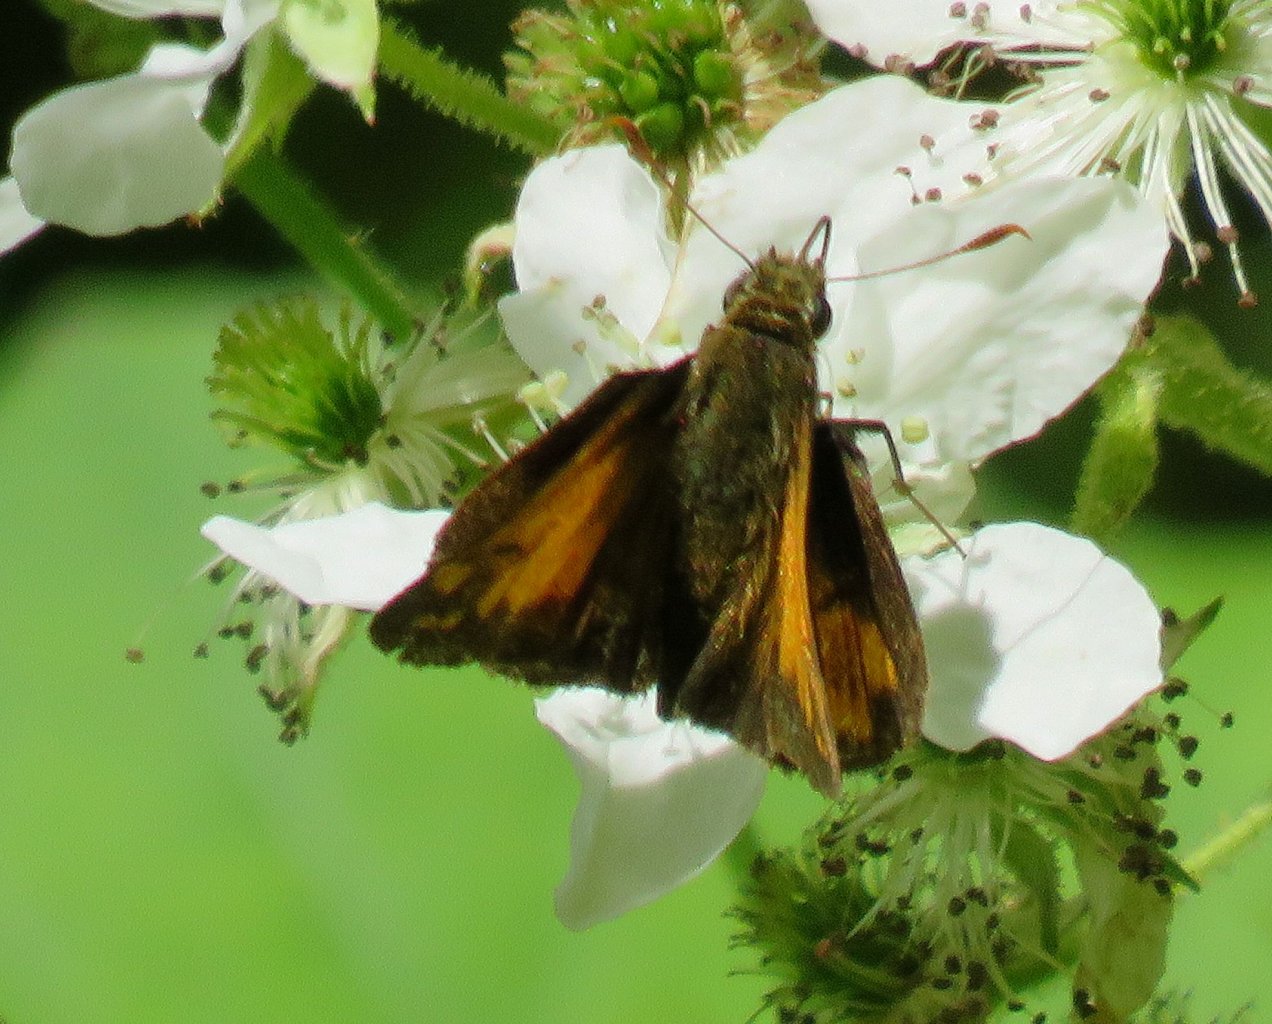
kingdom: Animalia
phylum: Arthropoda
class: Insecta
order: Lepidoptera
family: Hesperiidae
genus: Lon
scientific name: Lon hobomok
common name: Hobomok Skipper
